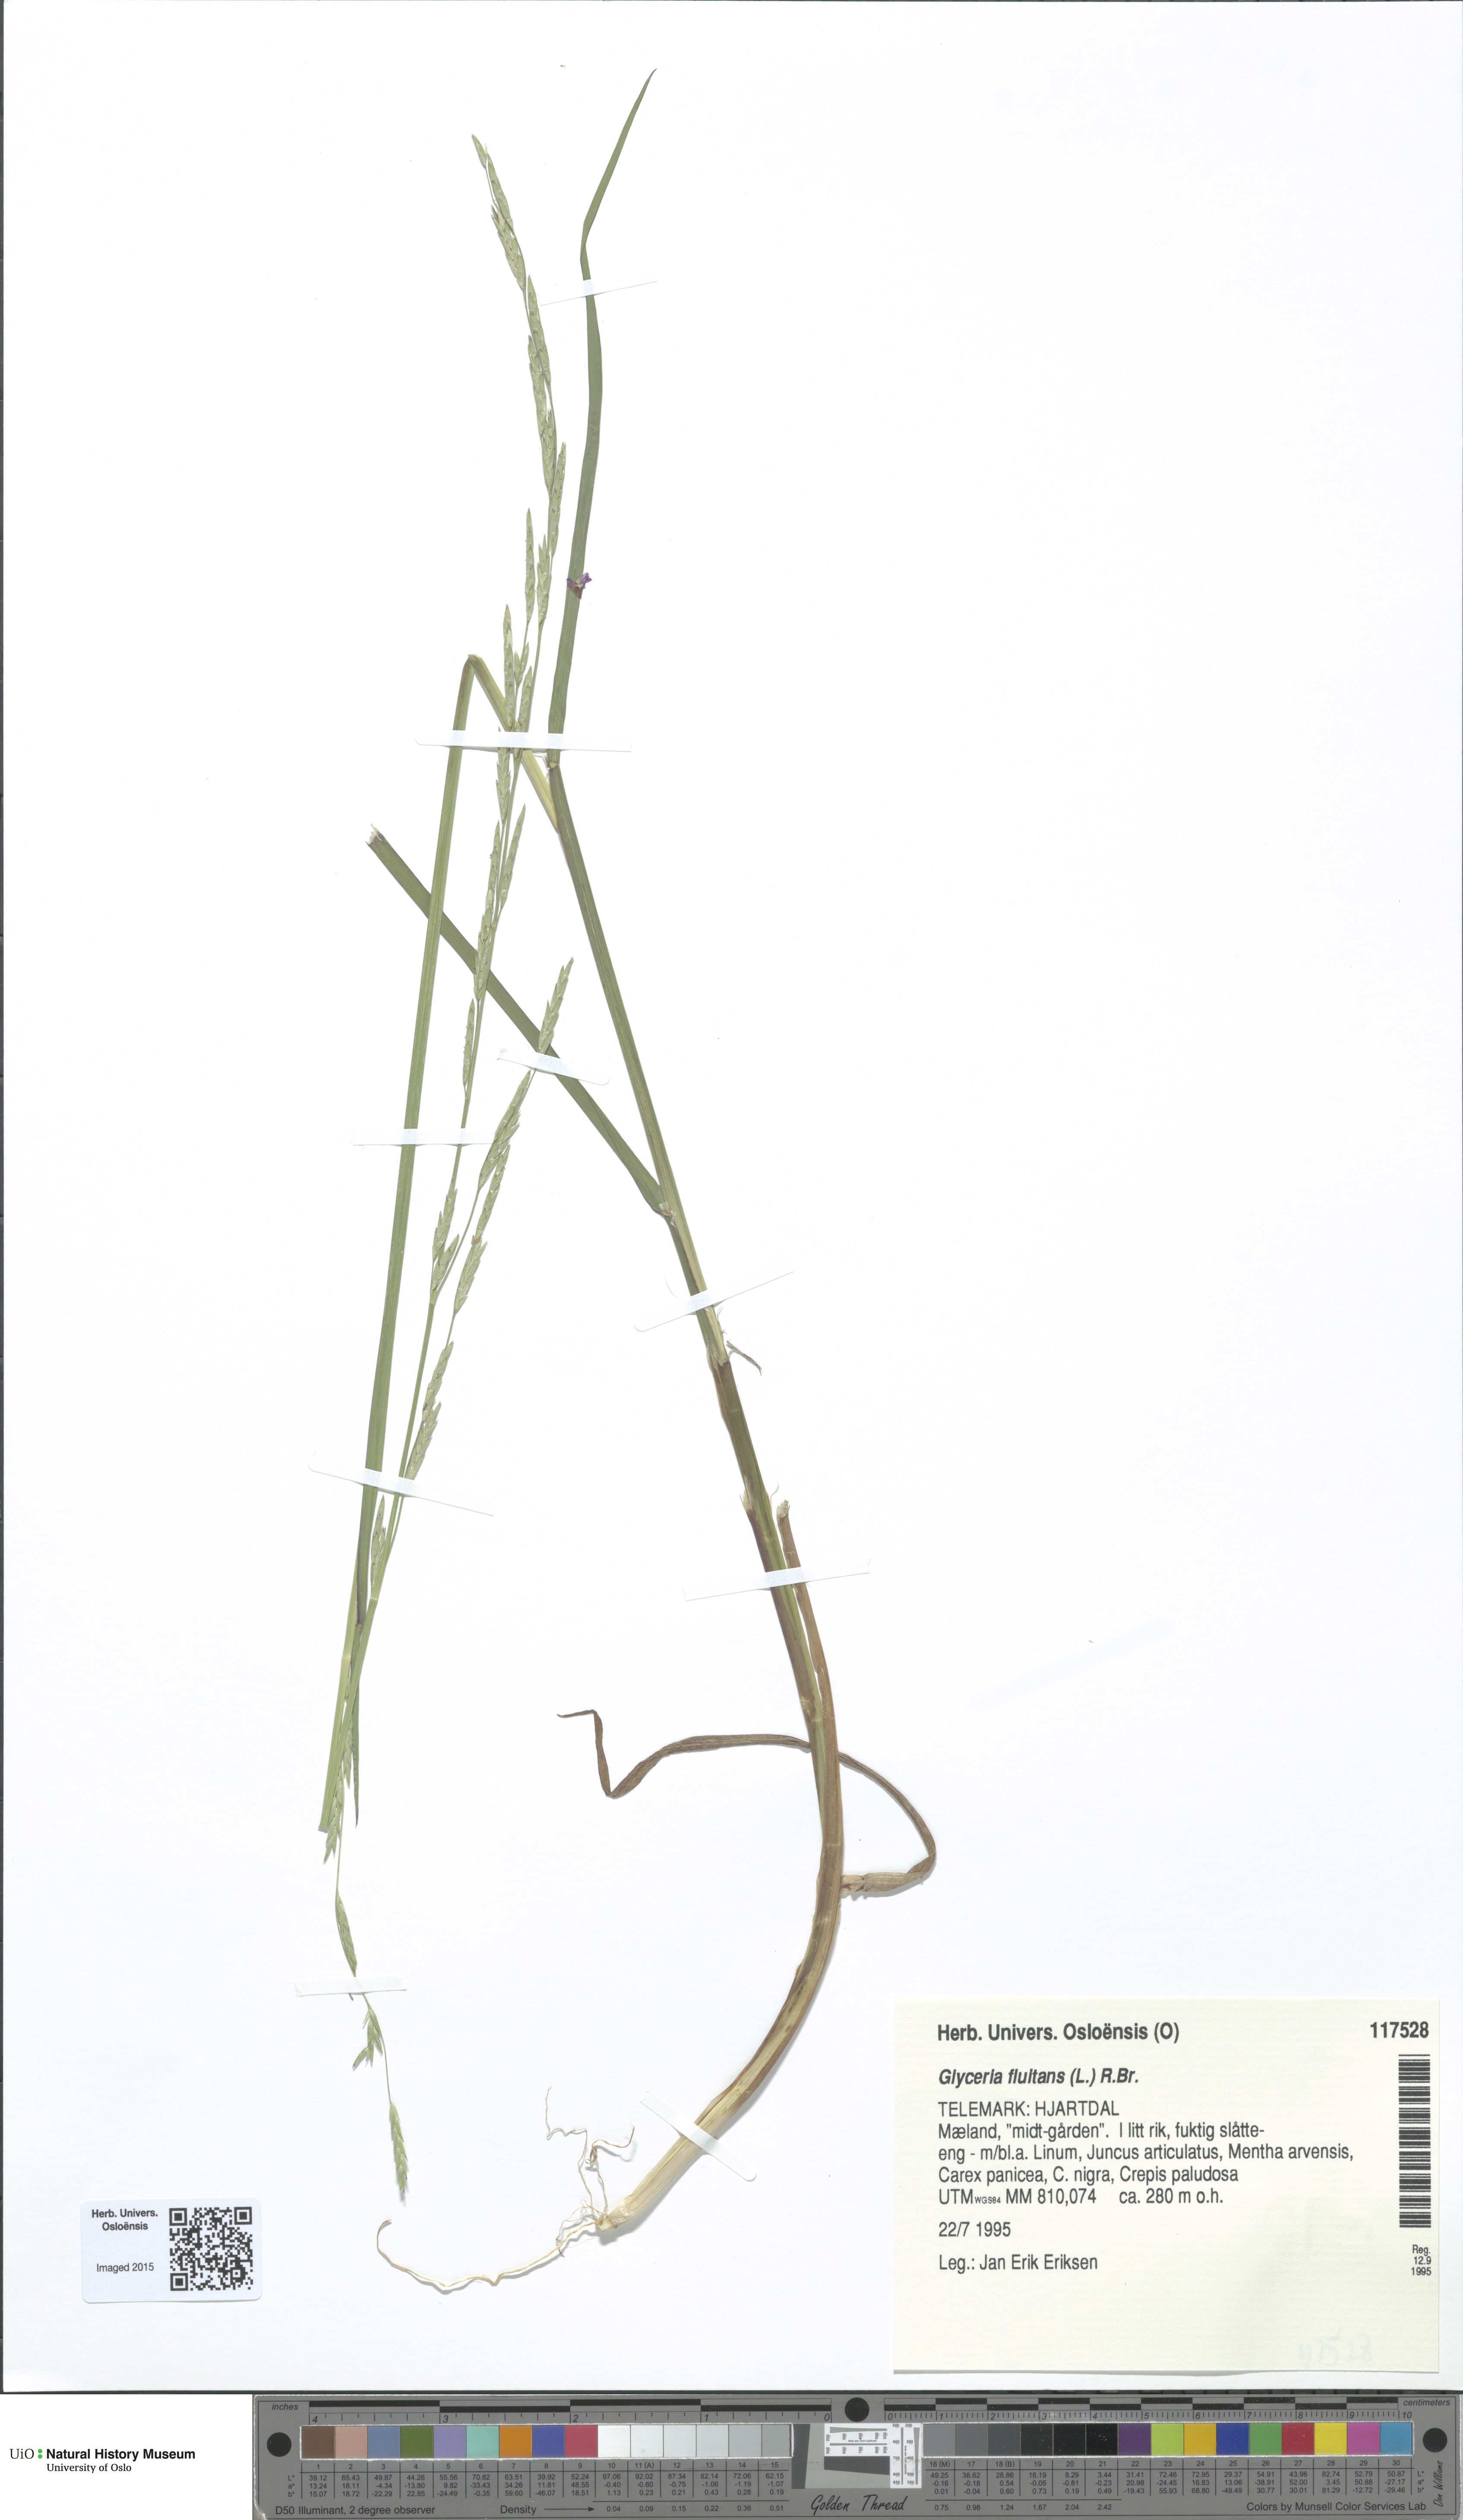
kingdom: Plantae
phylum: Tracheophyta
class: Liliopsida
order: Poales
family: Poaceae
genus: Glyceria
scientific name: Glyceria fluitans
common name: Floating sweet-grass
